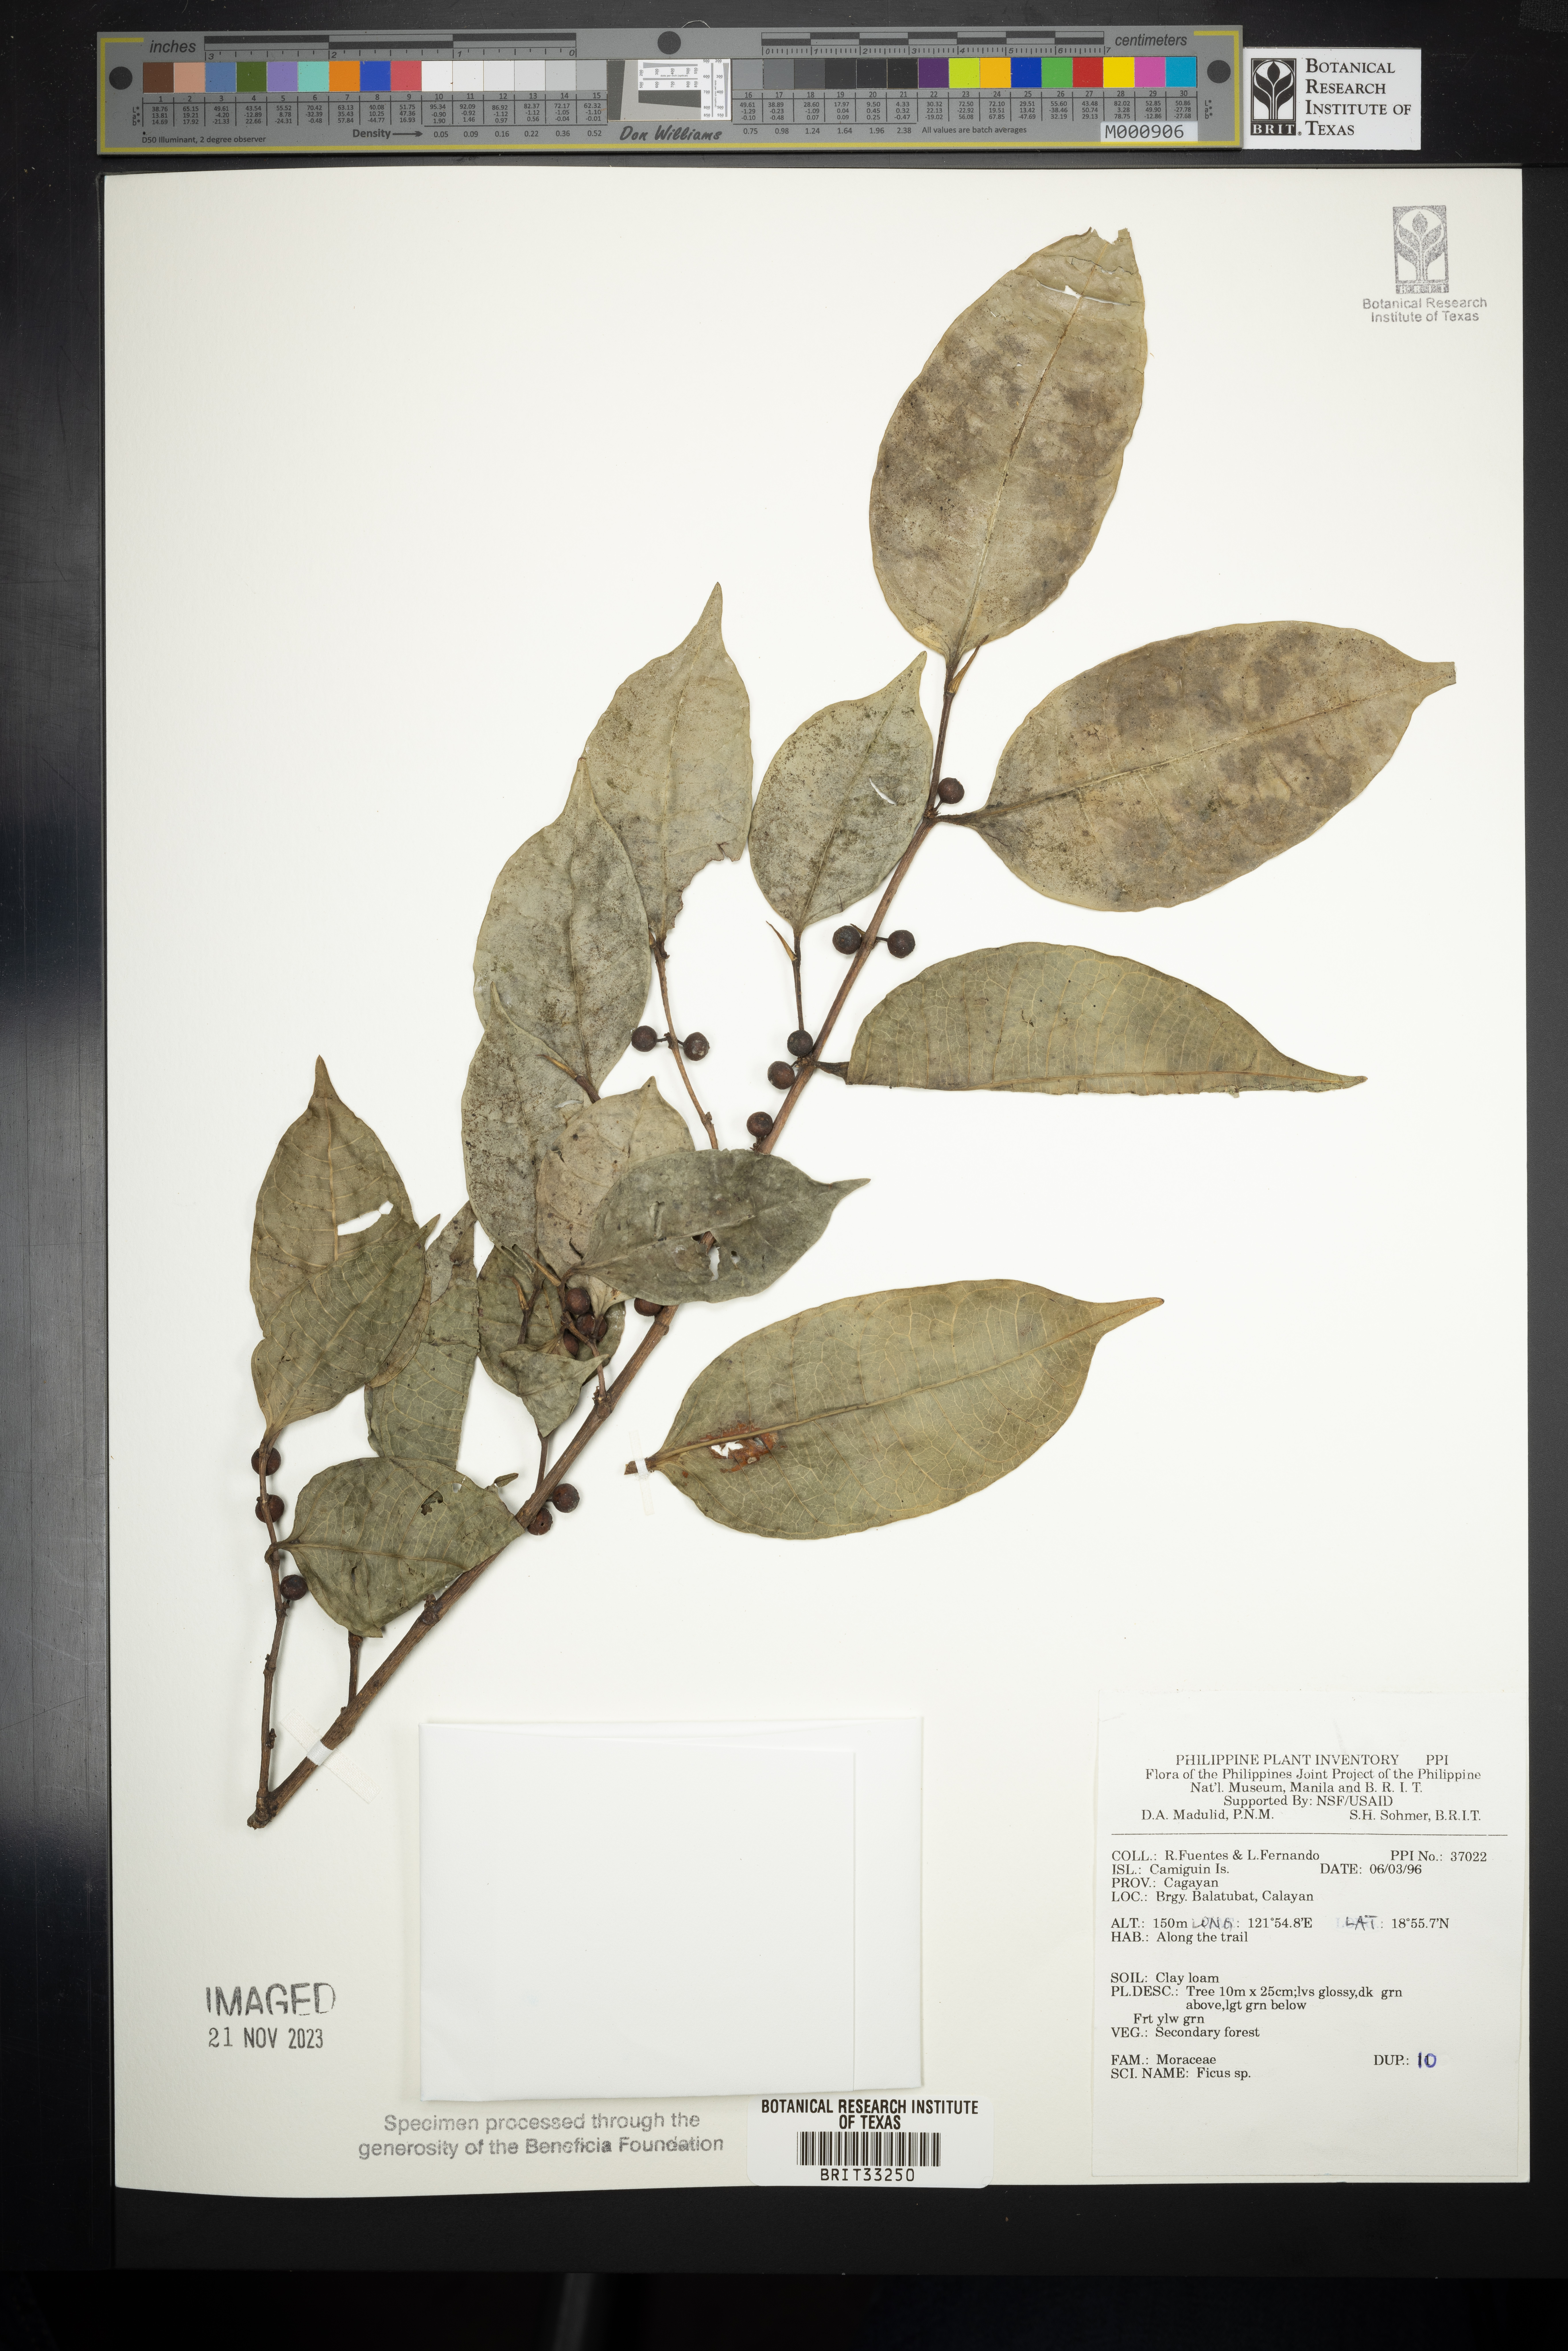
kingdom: Plantae
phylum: Tracheophyta
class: Magnoliopsida
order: Rosales
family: Moraceae
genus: Ficus
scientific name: Ficus
